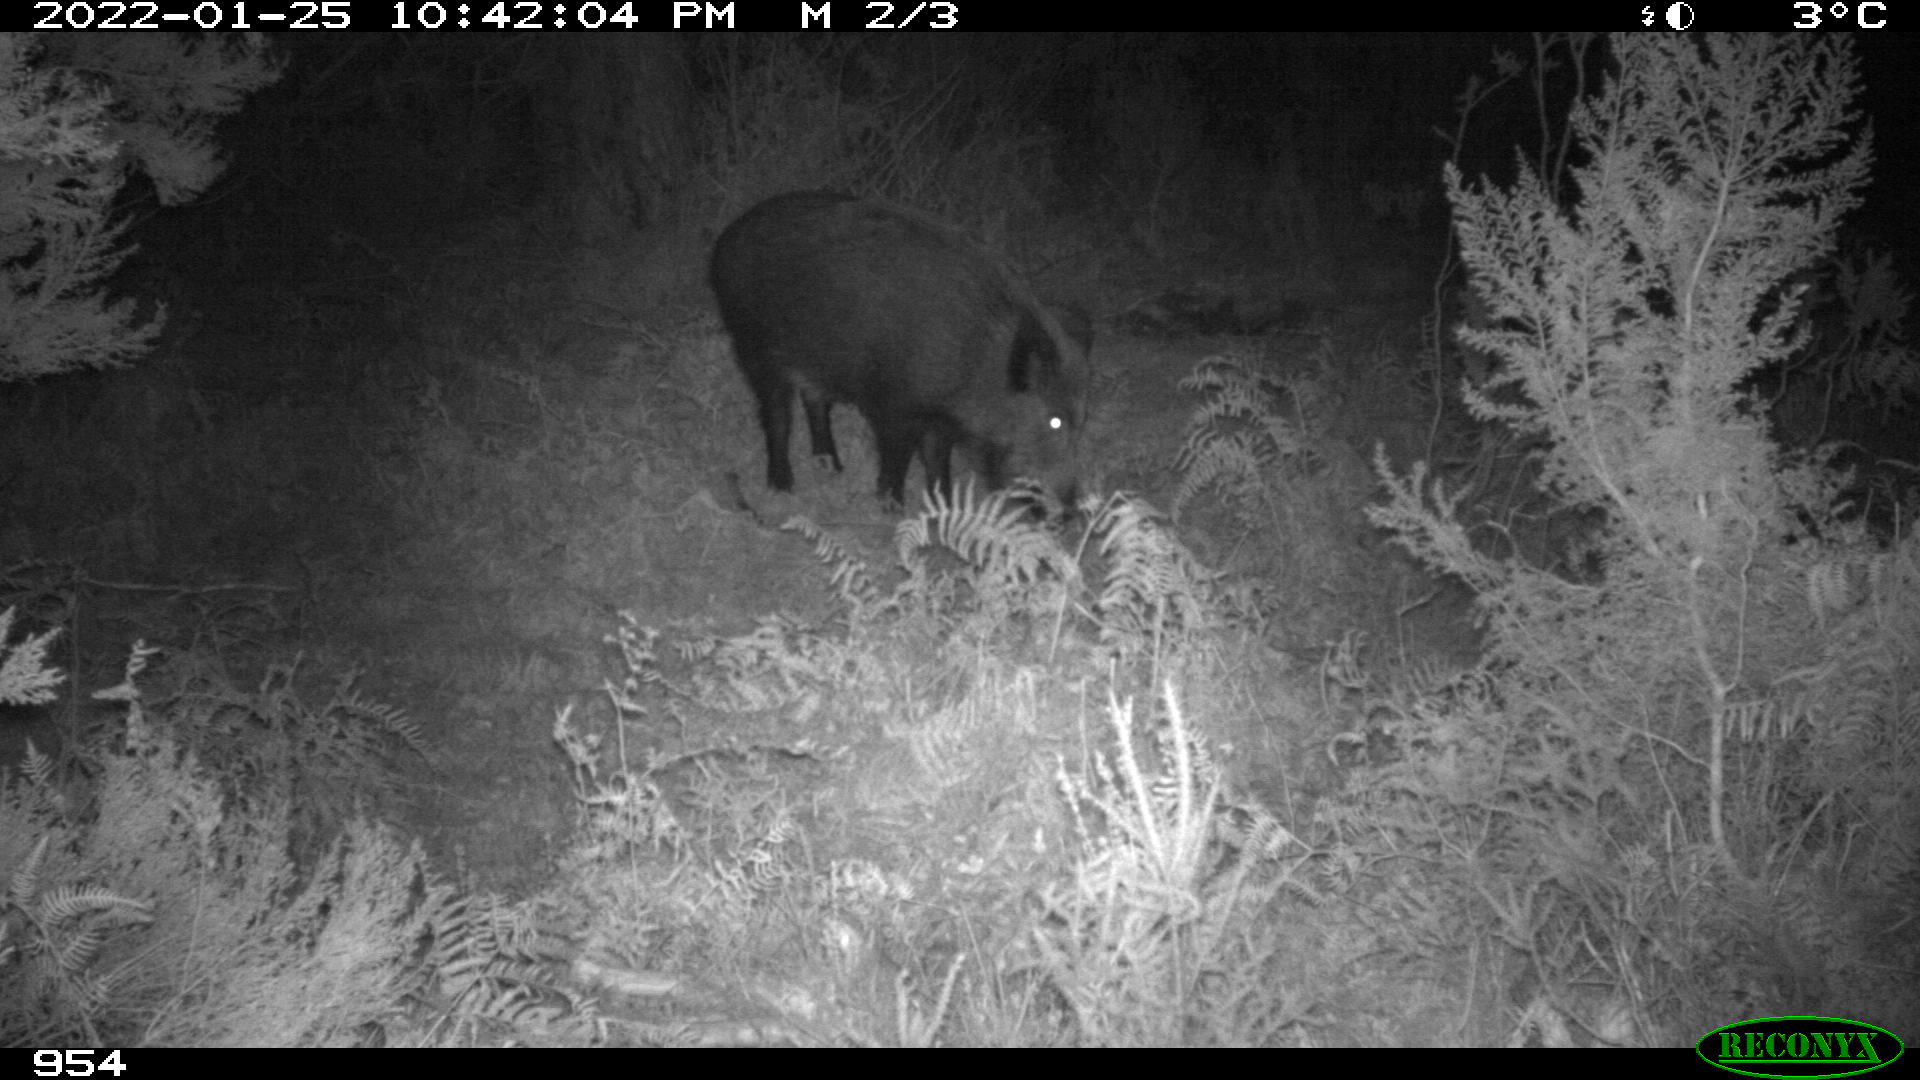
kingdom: Animalia
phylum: Chordata
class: Mammalia
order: Artiodactyla
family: Suidae
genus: Sus
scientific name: Sus scrofa
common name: Wild boar
